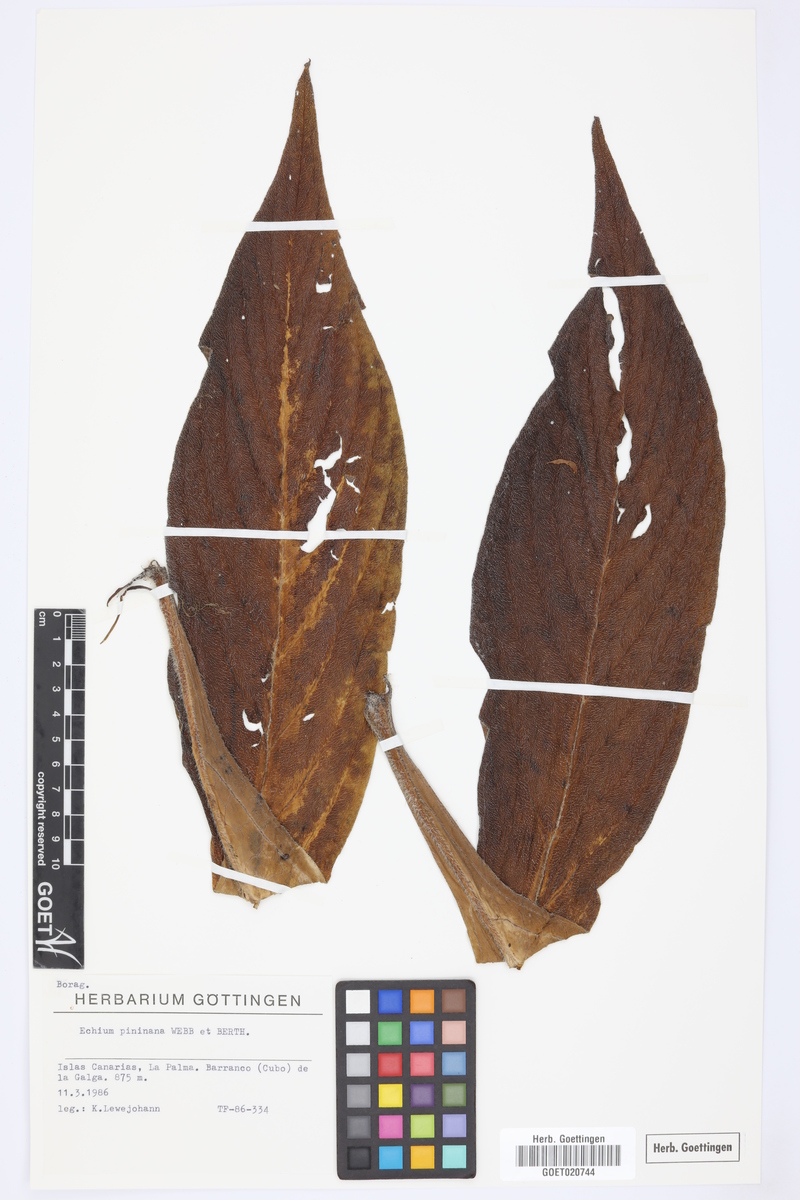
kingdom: Plantae
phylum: Tracheophyta
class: Magnoliopsida
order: Boraginales
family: Boraginaceae
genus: Echium
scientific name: Echium pininana
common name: Giant viper's-bugloss
